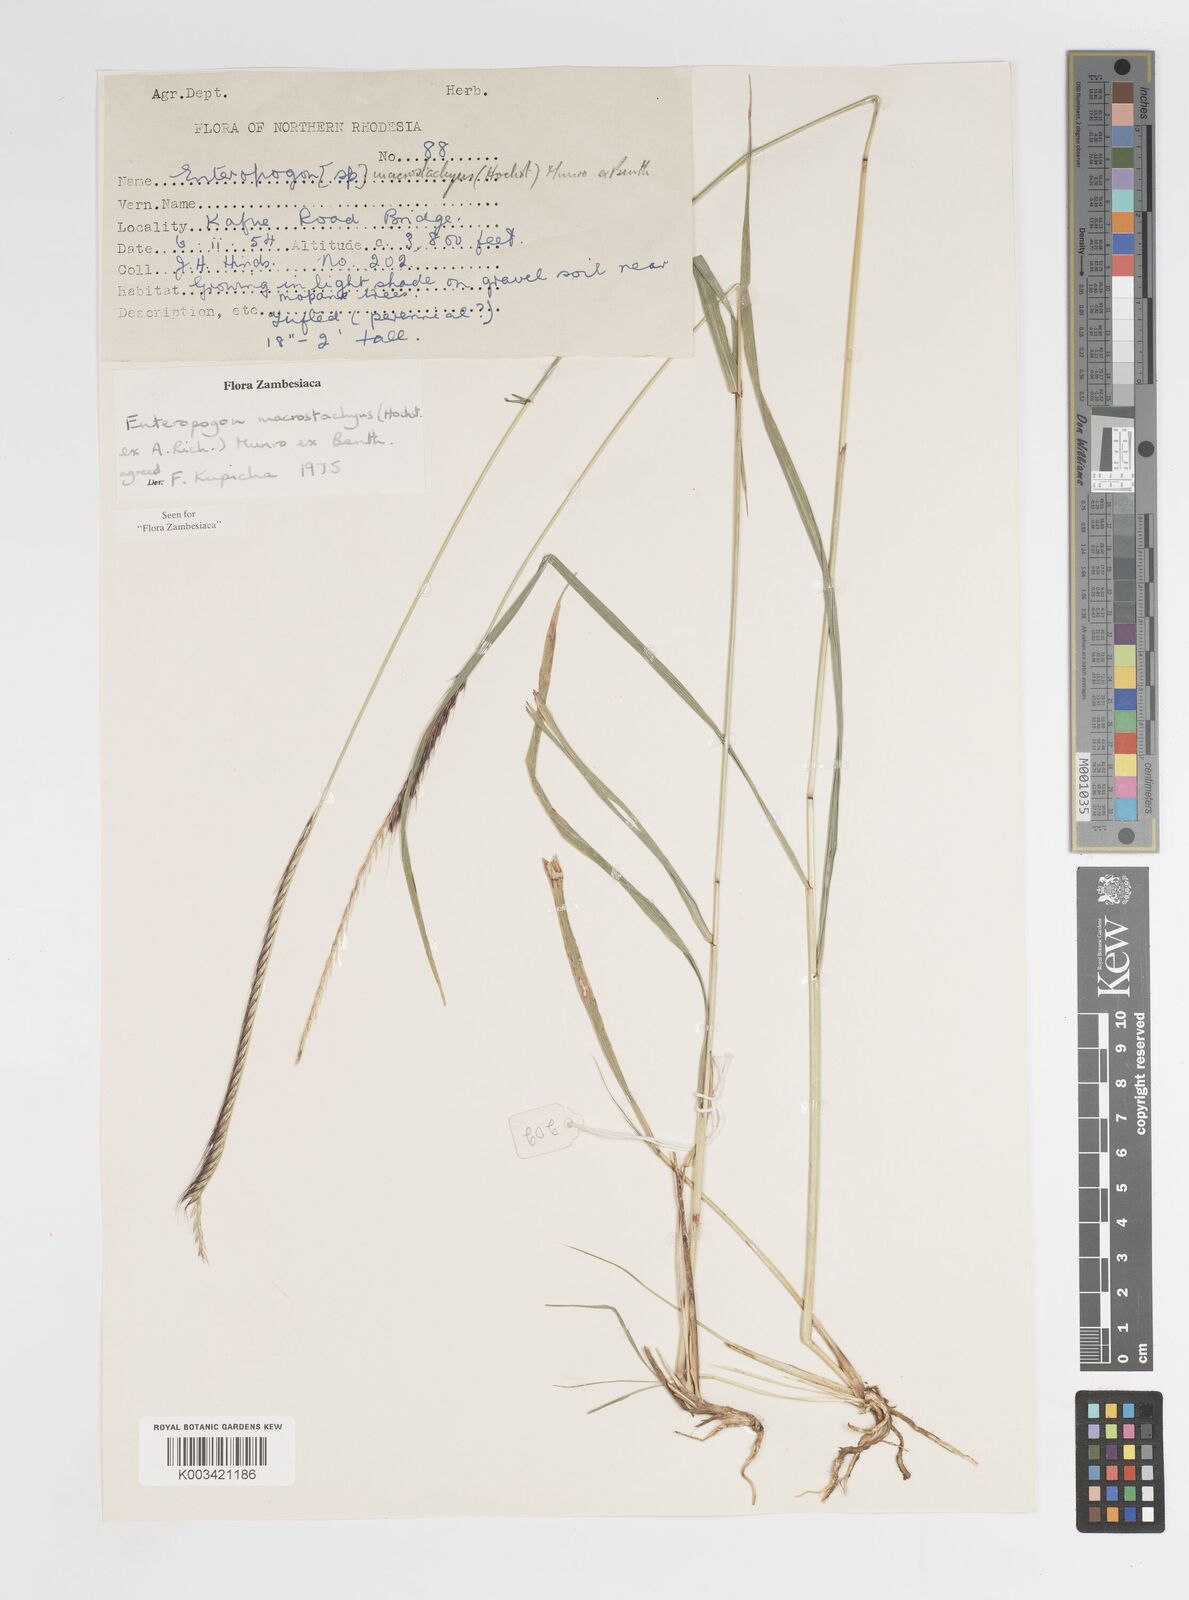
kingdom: Plantae
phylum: Tracheophyta
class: Liliopsida
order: Poales
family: Poaceae
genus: Enteropogon
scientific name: Enteropogon macrostachyus
